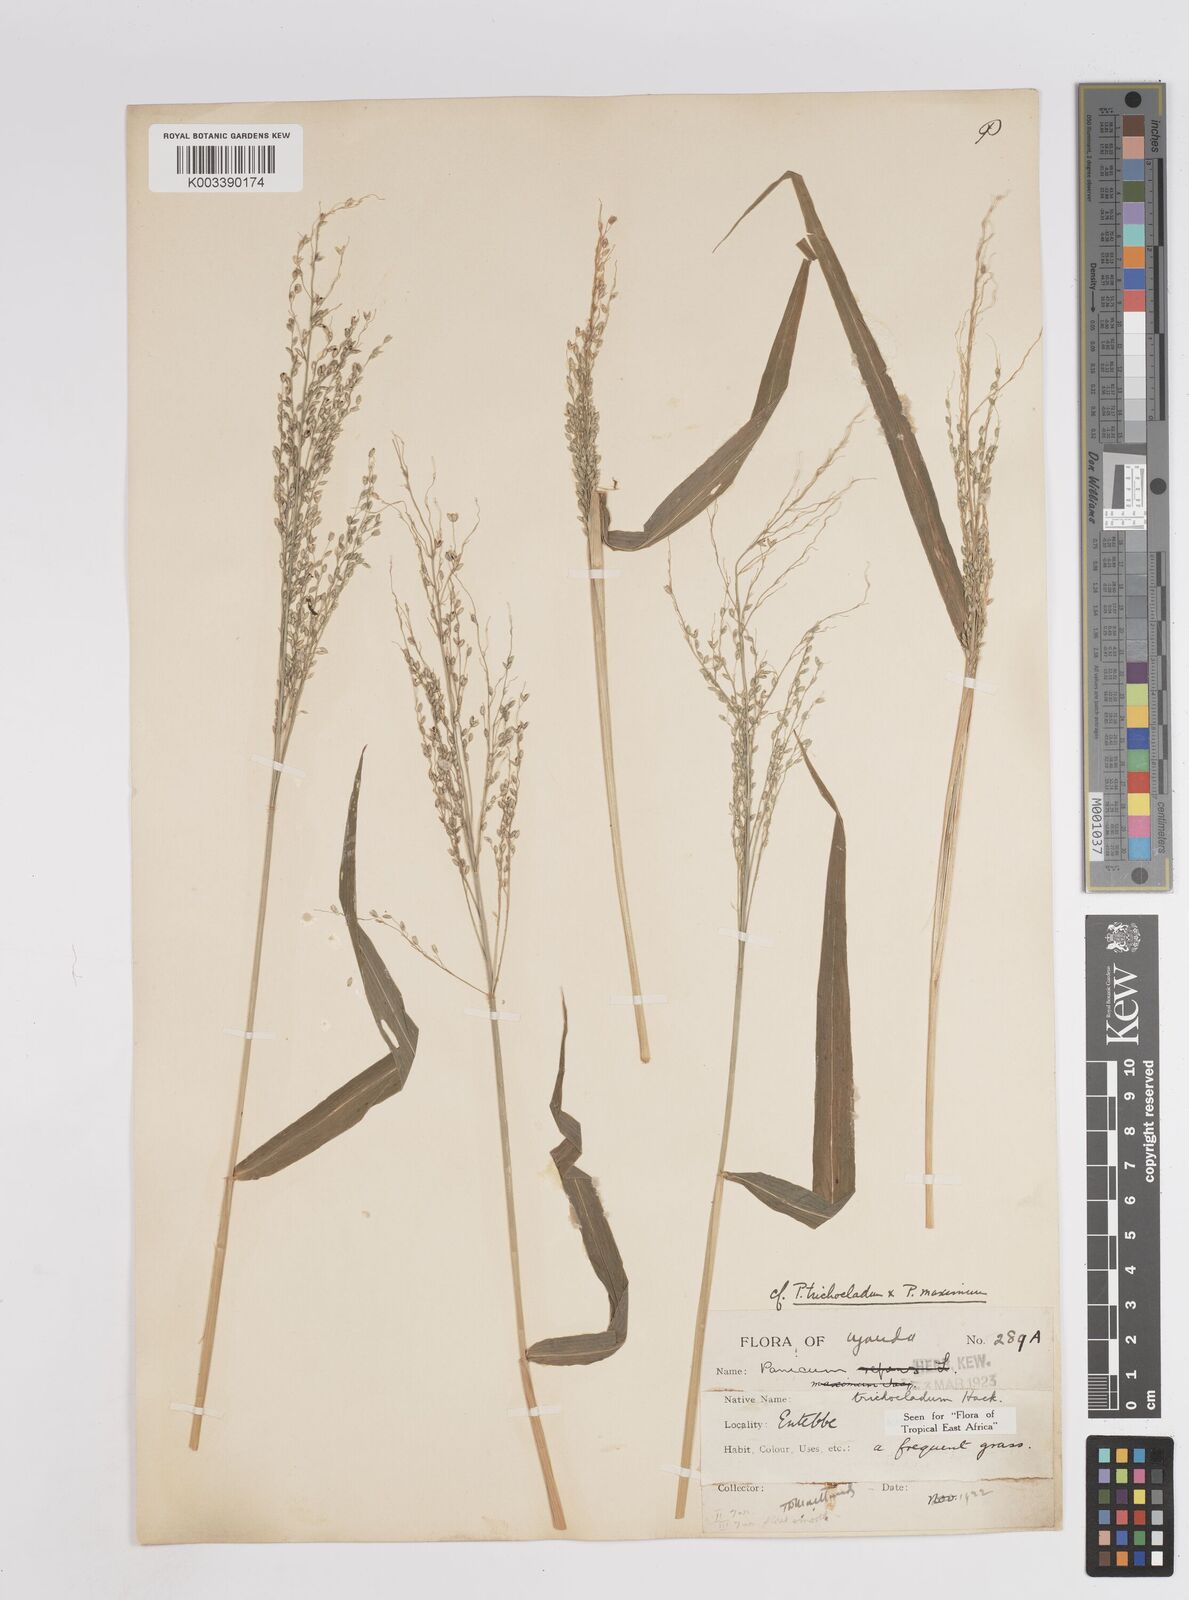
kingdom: Plantae
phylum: Tracheophyta
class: Liliopsida
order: Poales
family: Poaceae
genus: Panicum
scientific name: Panicum trichocladum
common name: Donkey grass
